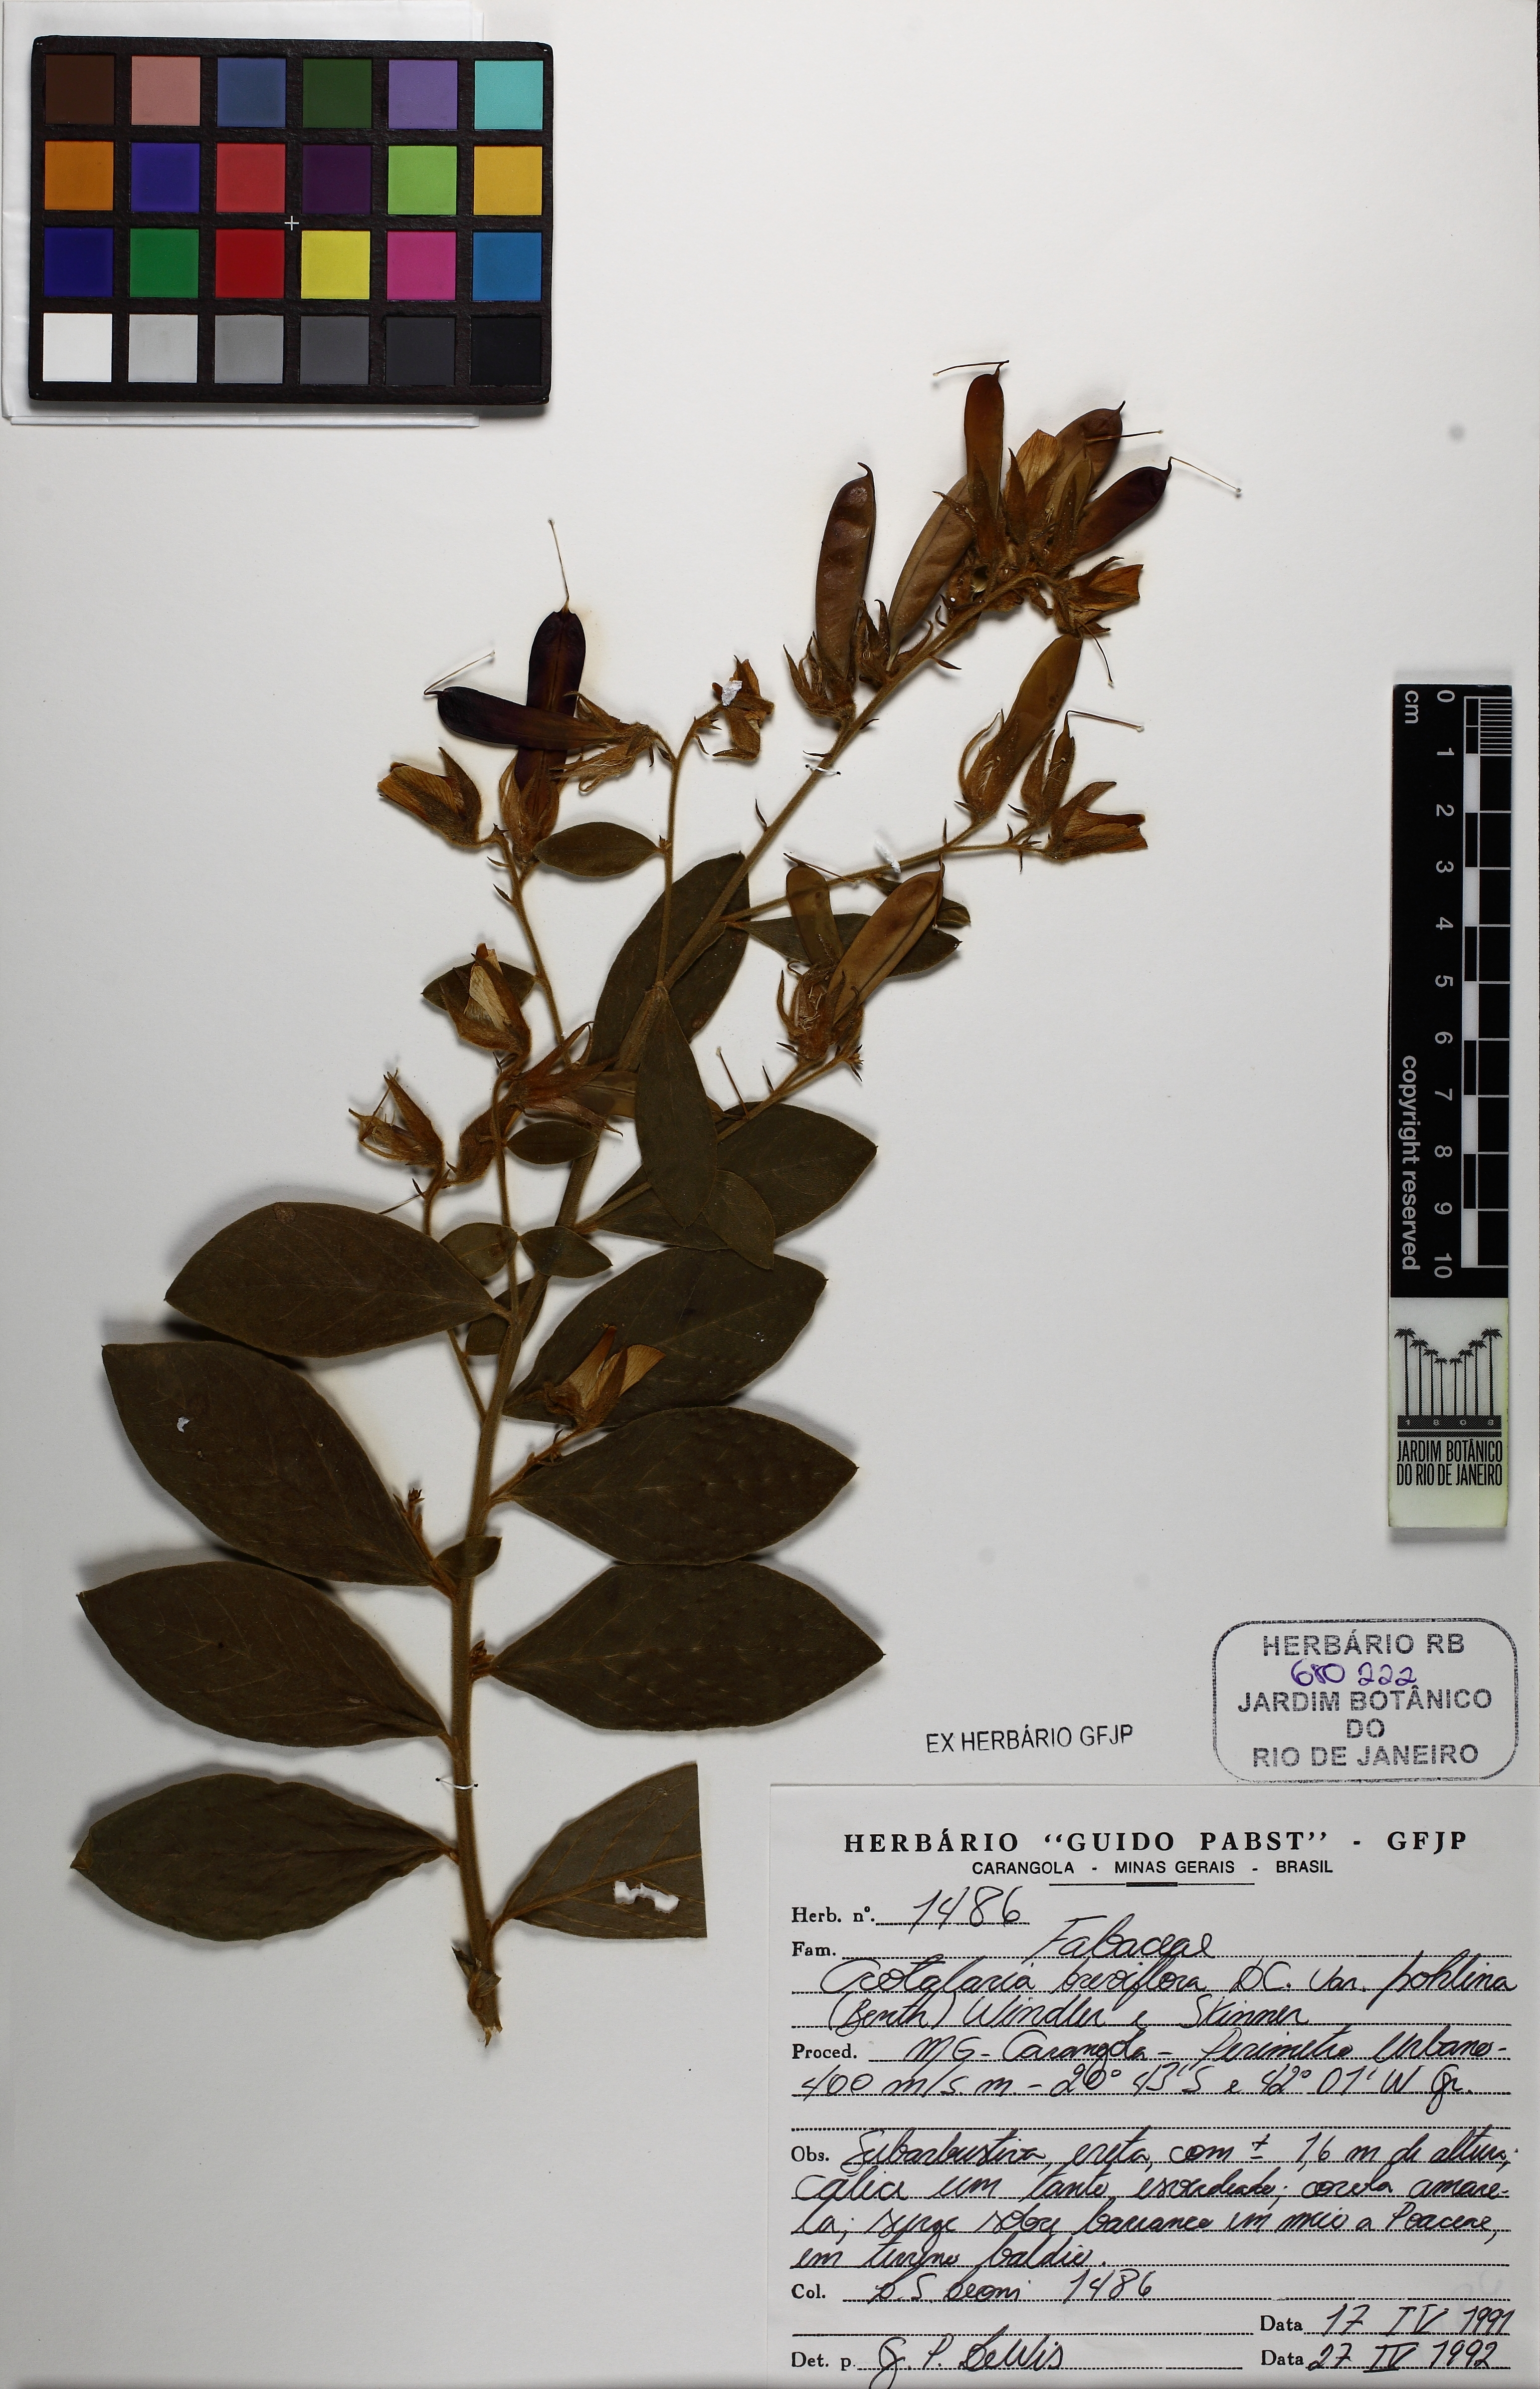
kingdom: Plantae
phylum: Tracheophyta
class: Magnoliopsida
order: Fabales
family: Fabaceae
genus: Crotalaria
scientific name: Crotalaria subdecurrens
